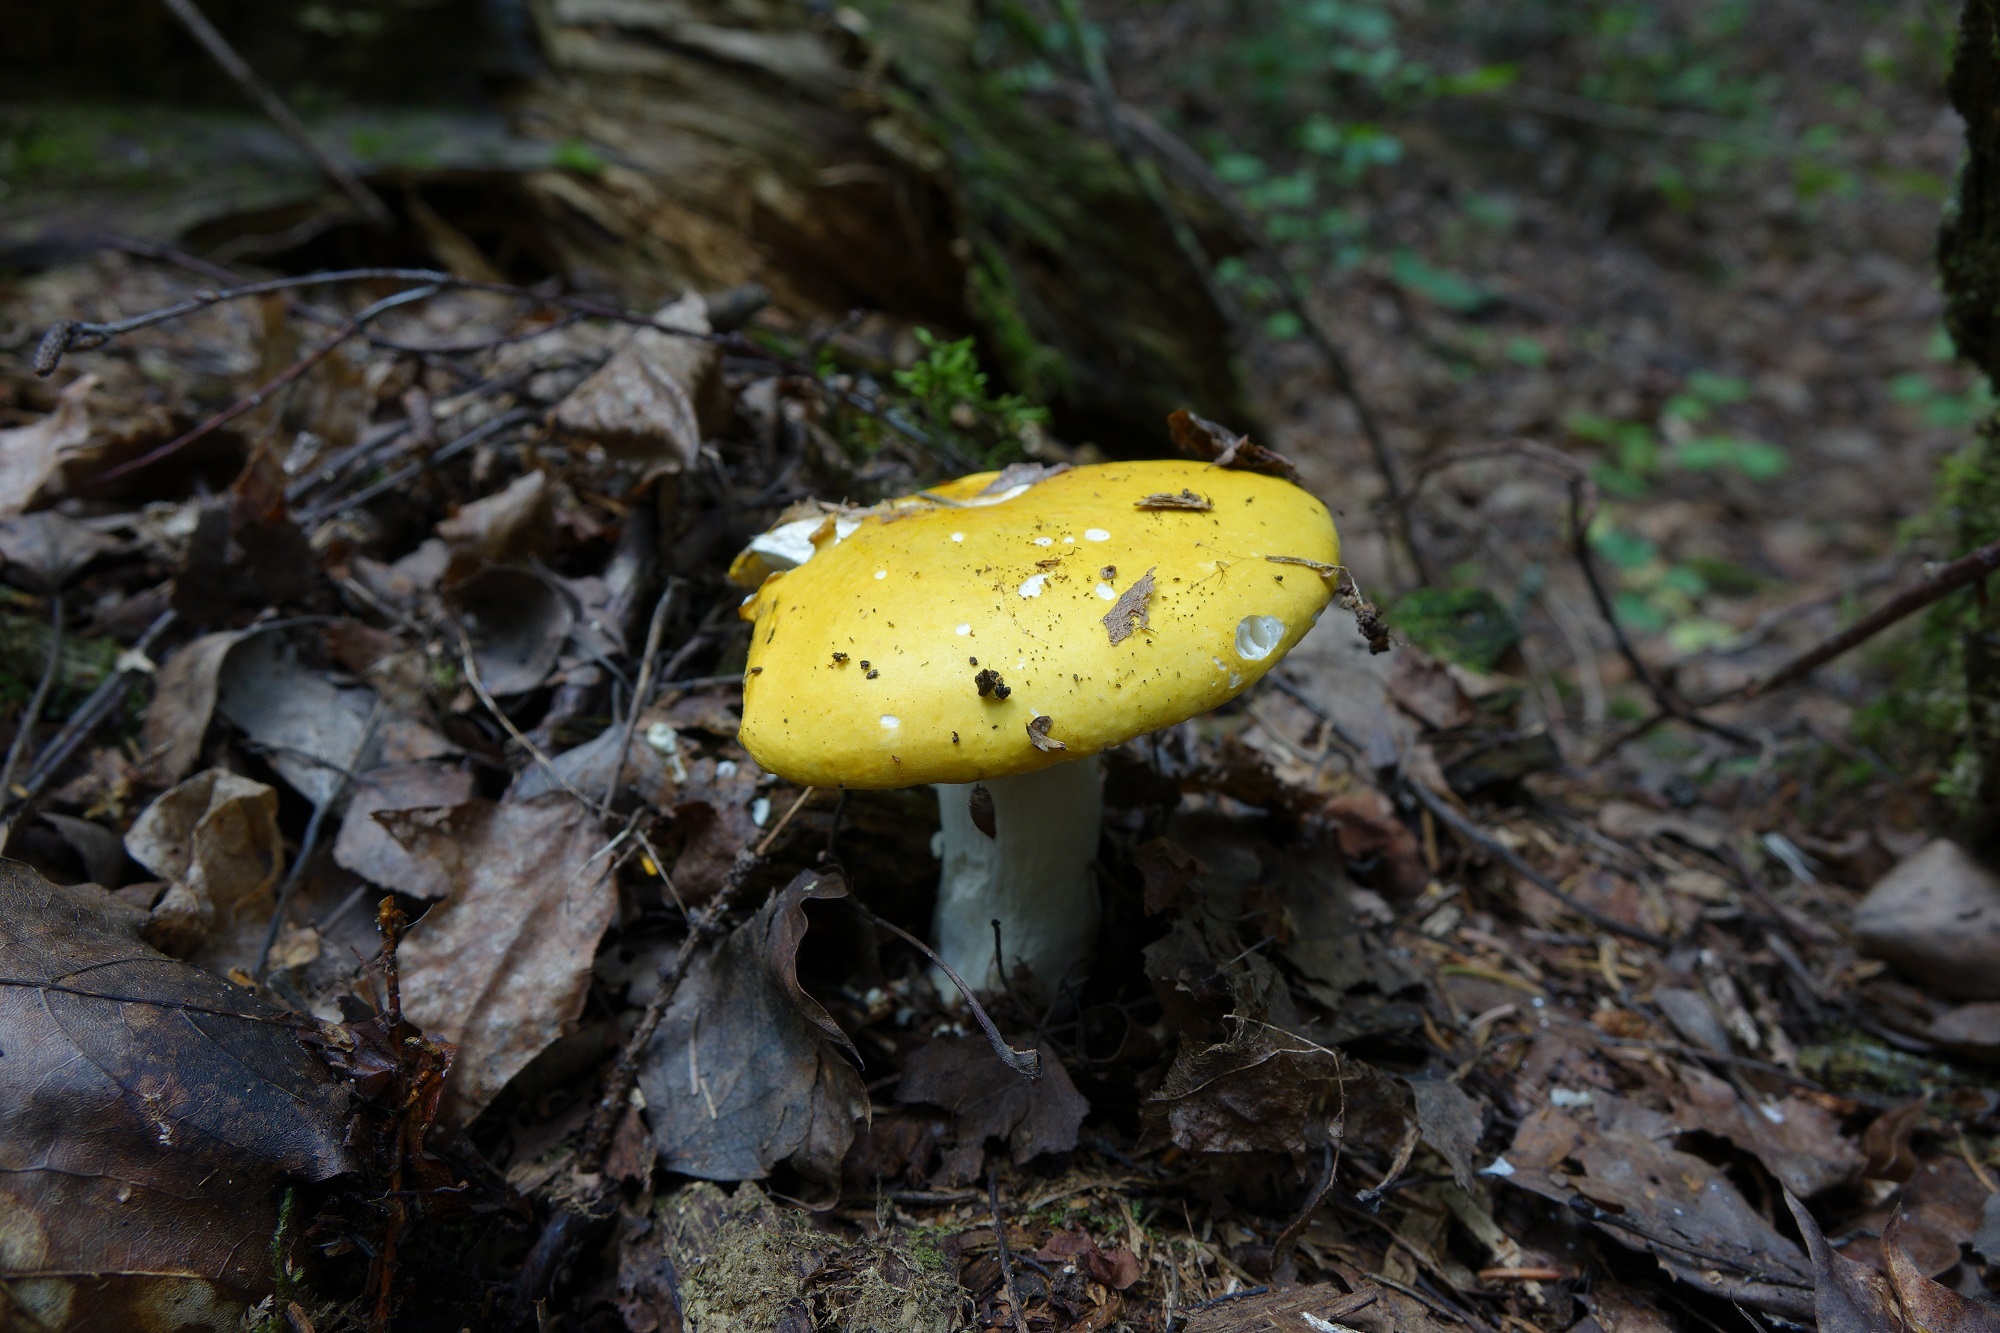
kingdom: Fungi
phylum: Basidiomycota
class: Agaricomycetes
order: Russulales
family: Russulaceae
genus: Russula
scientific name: Russula claroflava
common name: The yellow swamp brittlegill
